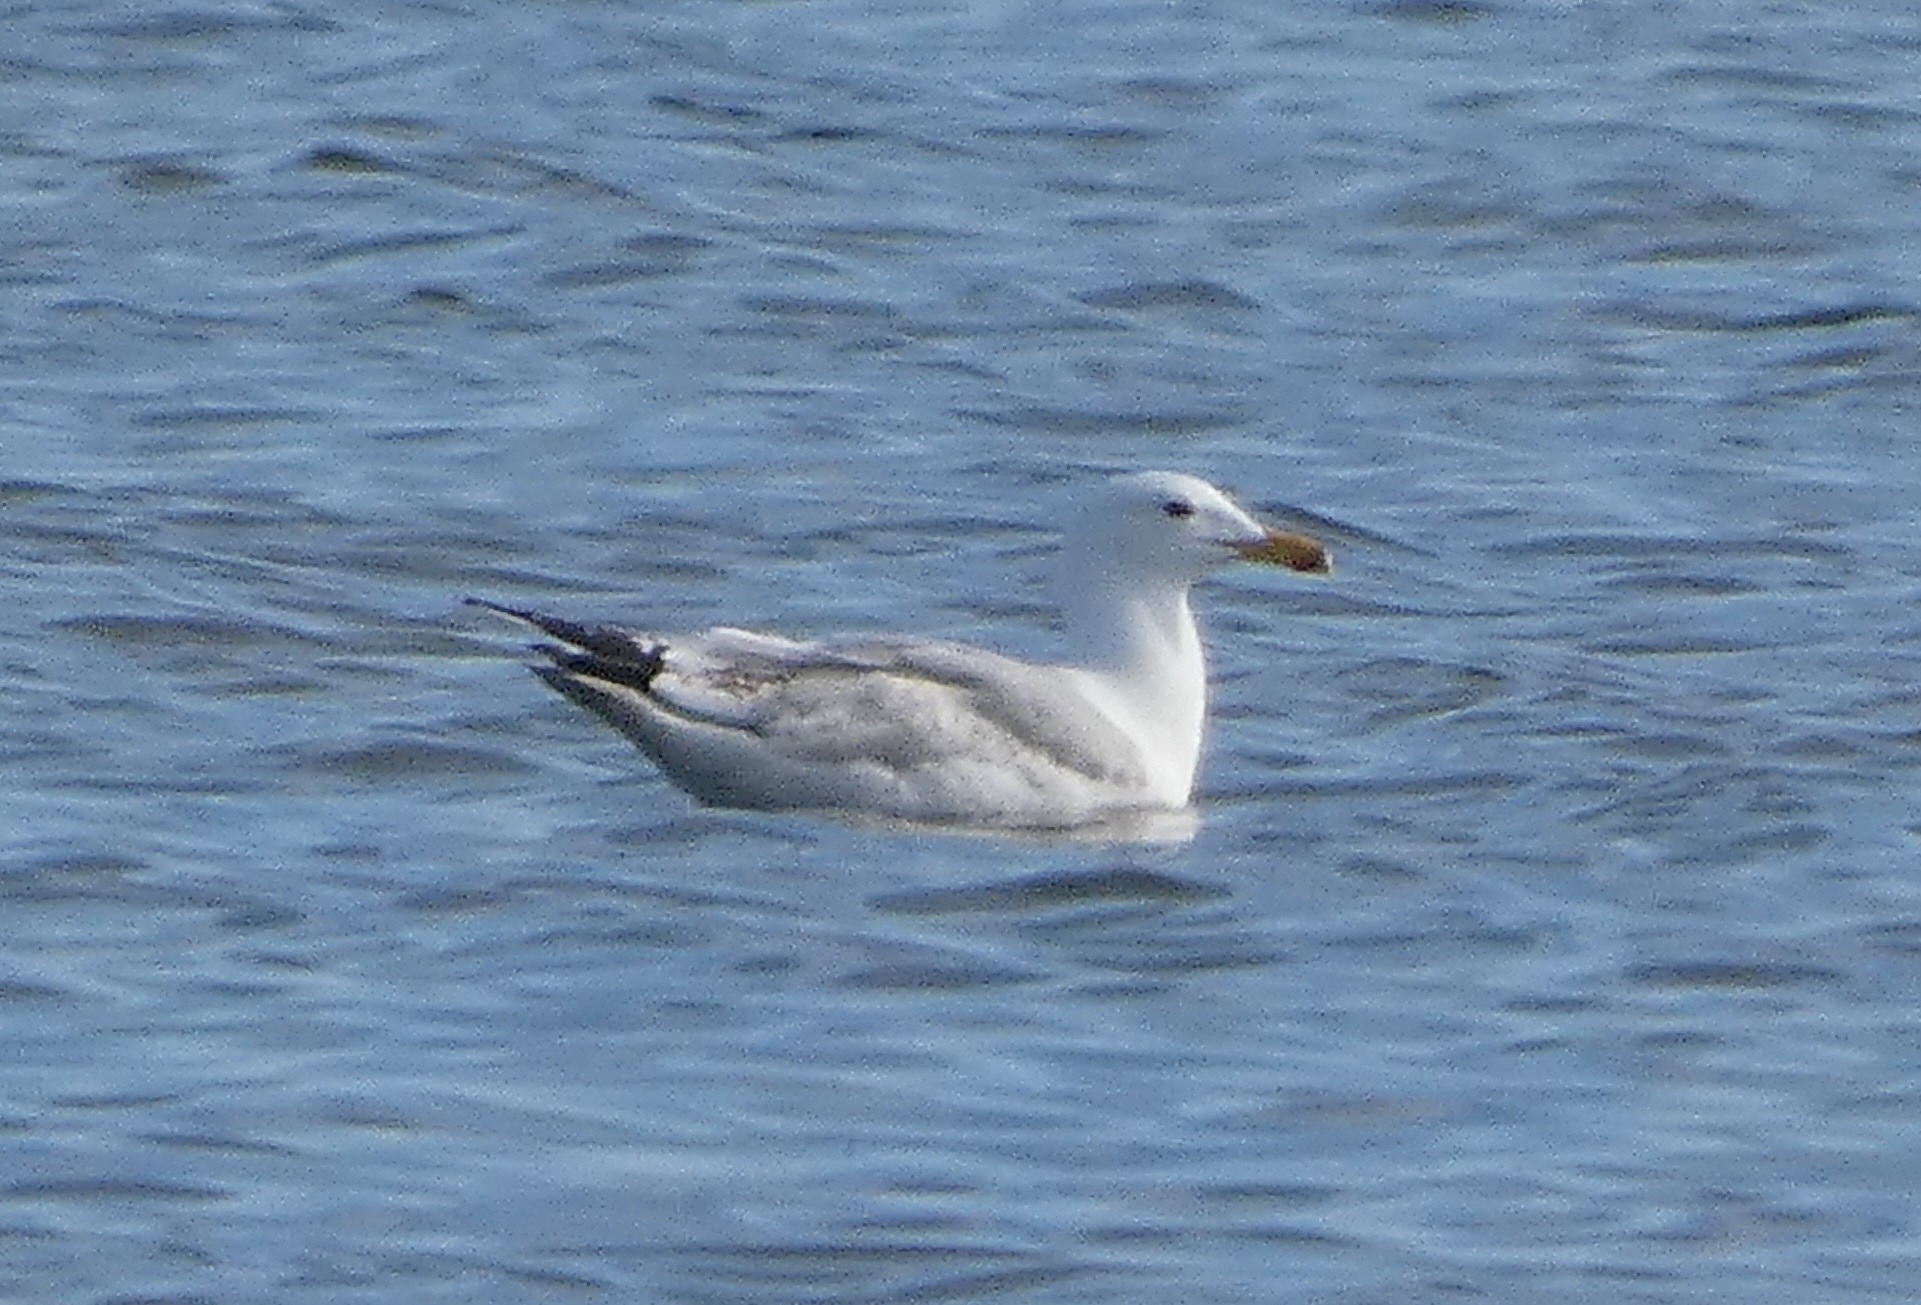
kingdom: Animalia
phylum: Chordata
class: Aves
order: Charadriiformes
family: Laridae
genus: Larus
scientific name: Larus argentatus
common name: Sølvmåge
